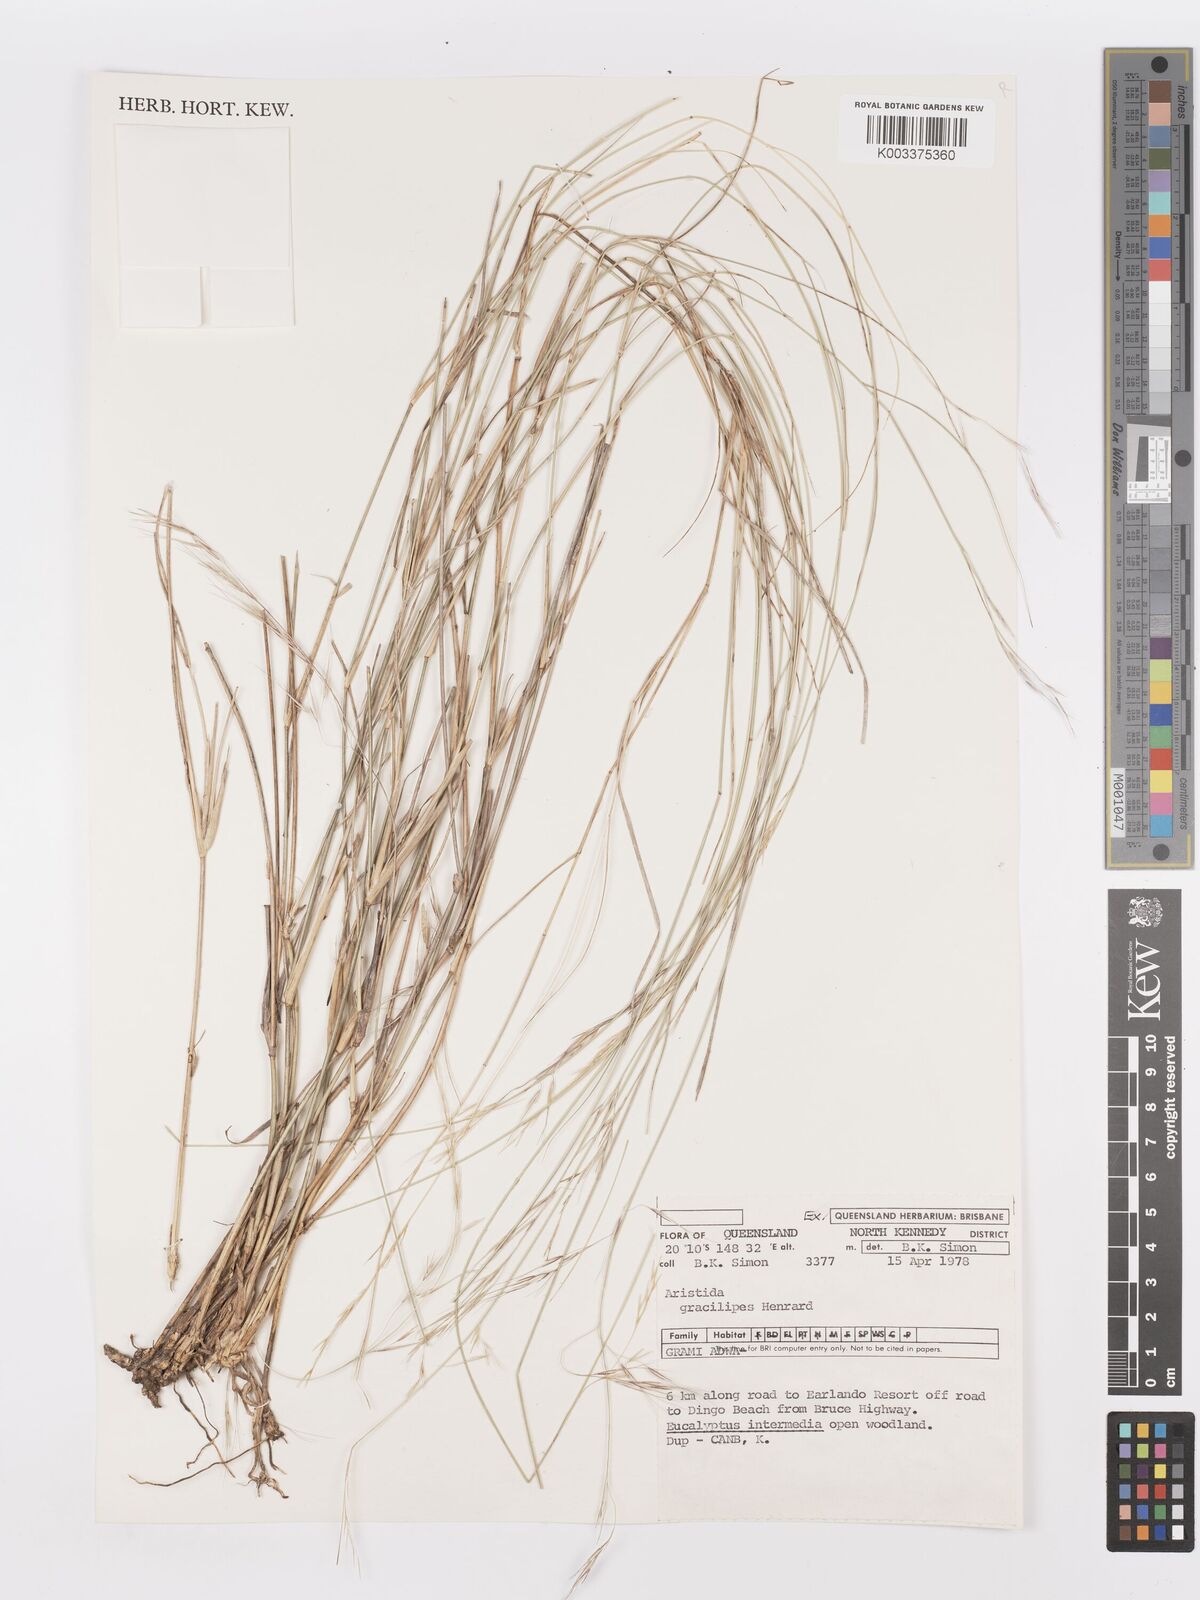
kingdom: Plantae
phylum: Tracheophyta
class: Liliopsida
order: Poales
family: Poaceae
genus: Aristida
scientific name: Aristida gracilipes
